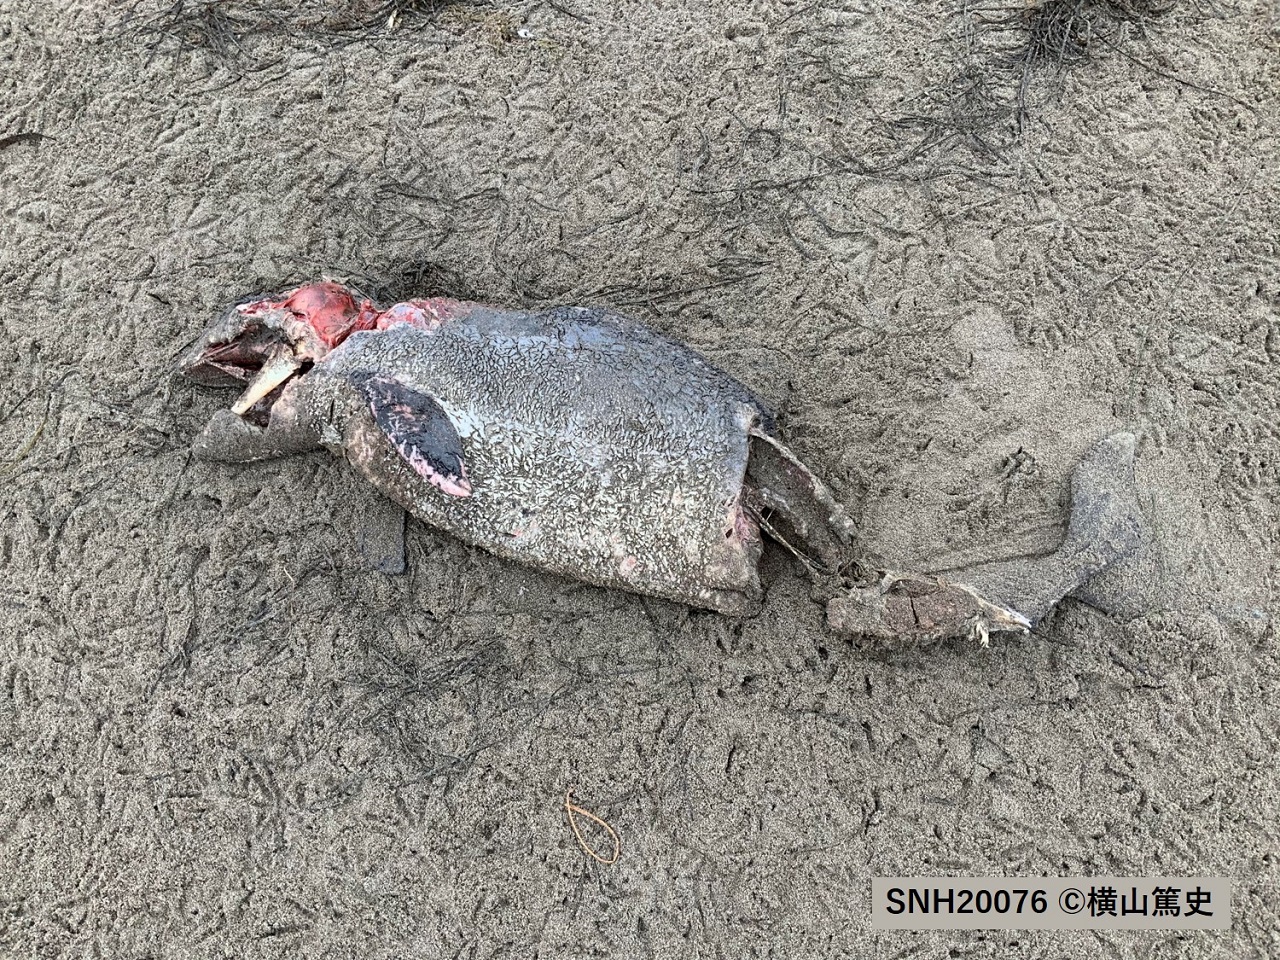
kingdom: Animalia
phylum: Chordata
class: Mammalia
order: Cetacea
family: Phocoenidae
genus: Phocoena
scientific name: Phocoena phocoena
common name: Harbour porpoise
